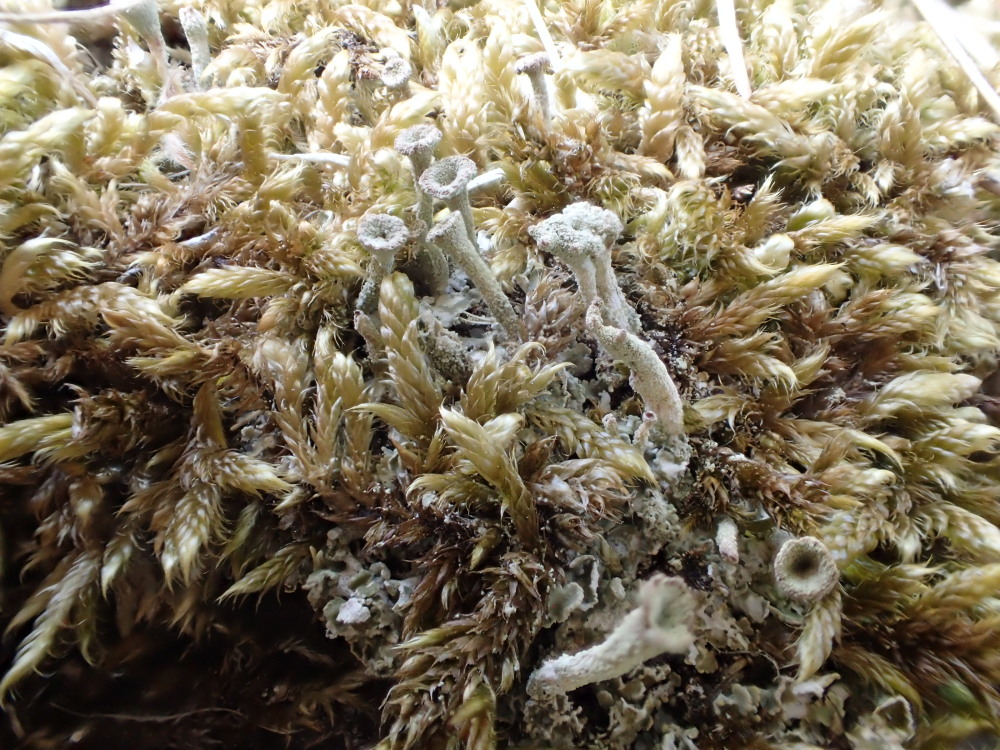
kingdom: Fungi
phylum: Ascomycota
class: Lecanoromycetes
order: Lecanorales
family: Cladoniaceae
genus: Cladonia
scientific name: Cladonia
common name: brungrøn bægerlav
